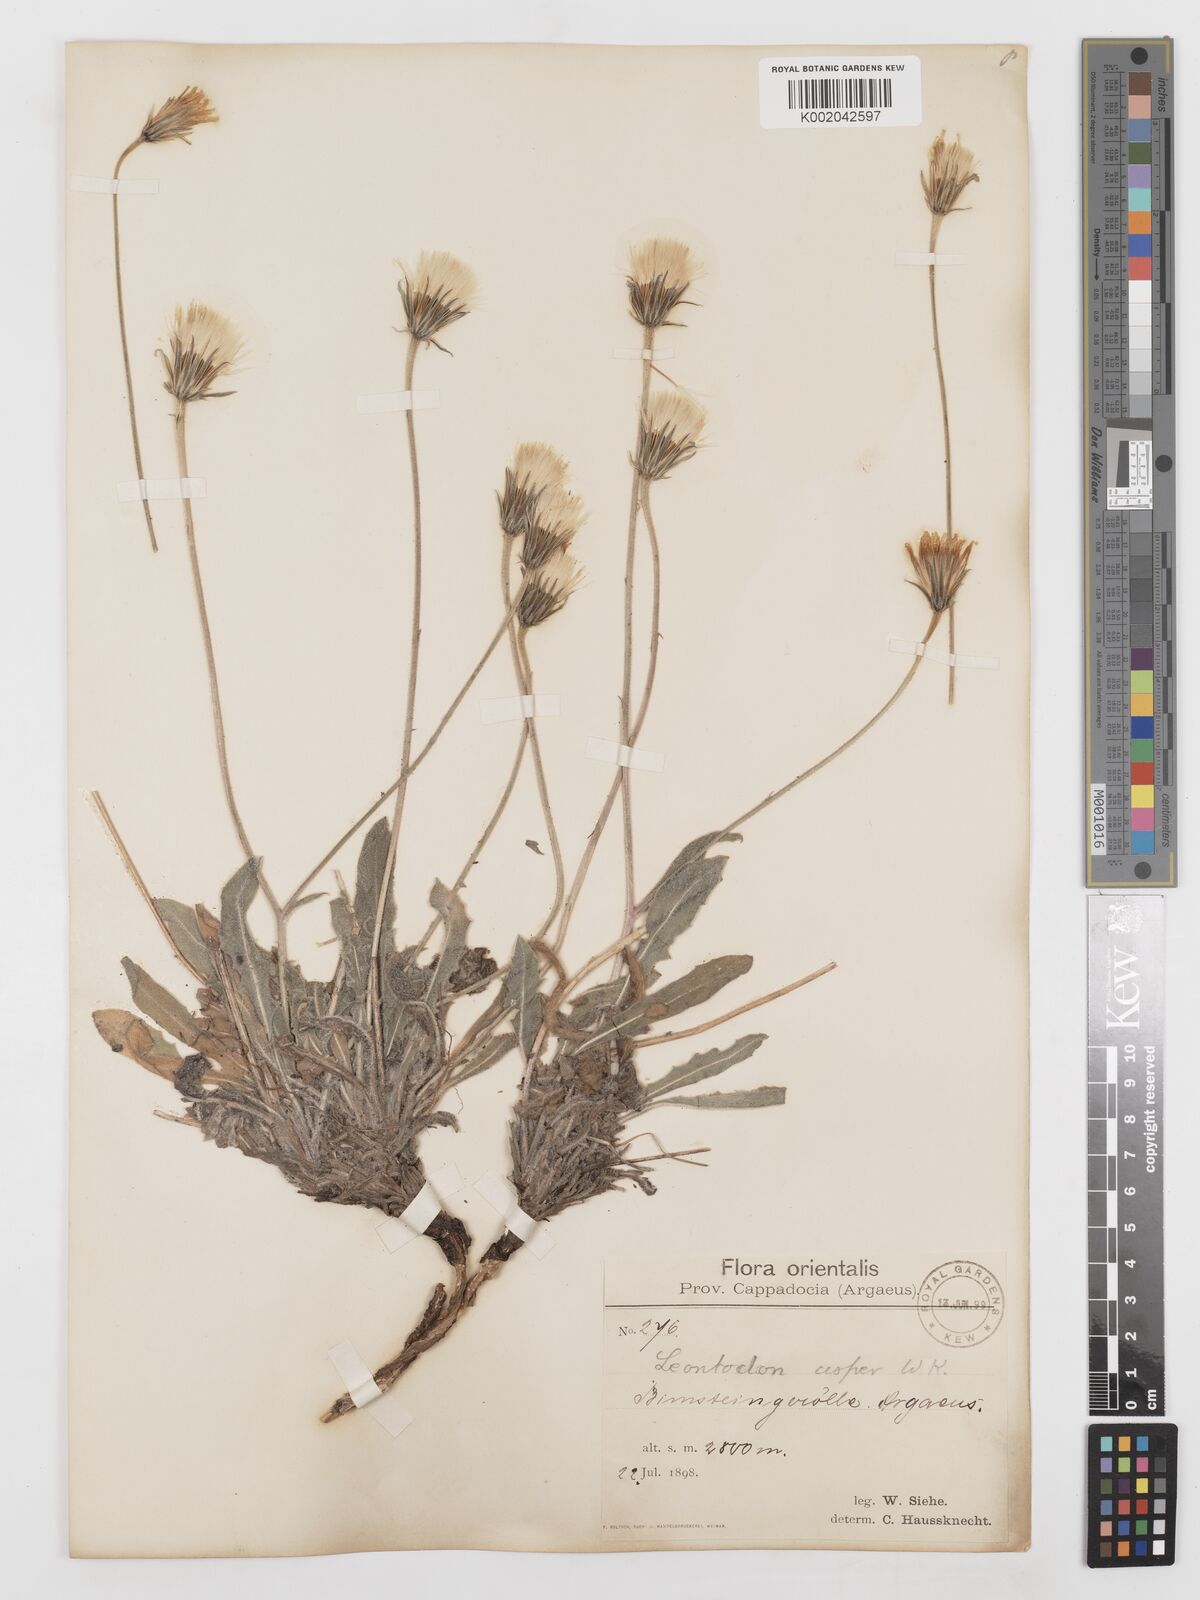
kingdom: Plantae
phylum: Tracheophyta
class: Magnoliopsida
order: Asterales
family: Asteraceae
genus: Leontodon
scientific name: Leontodon
